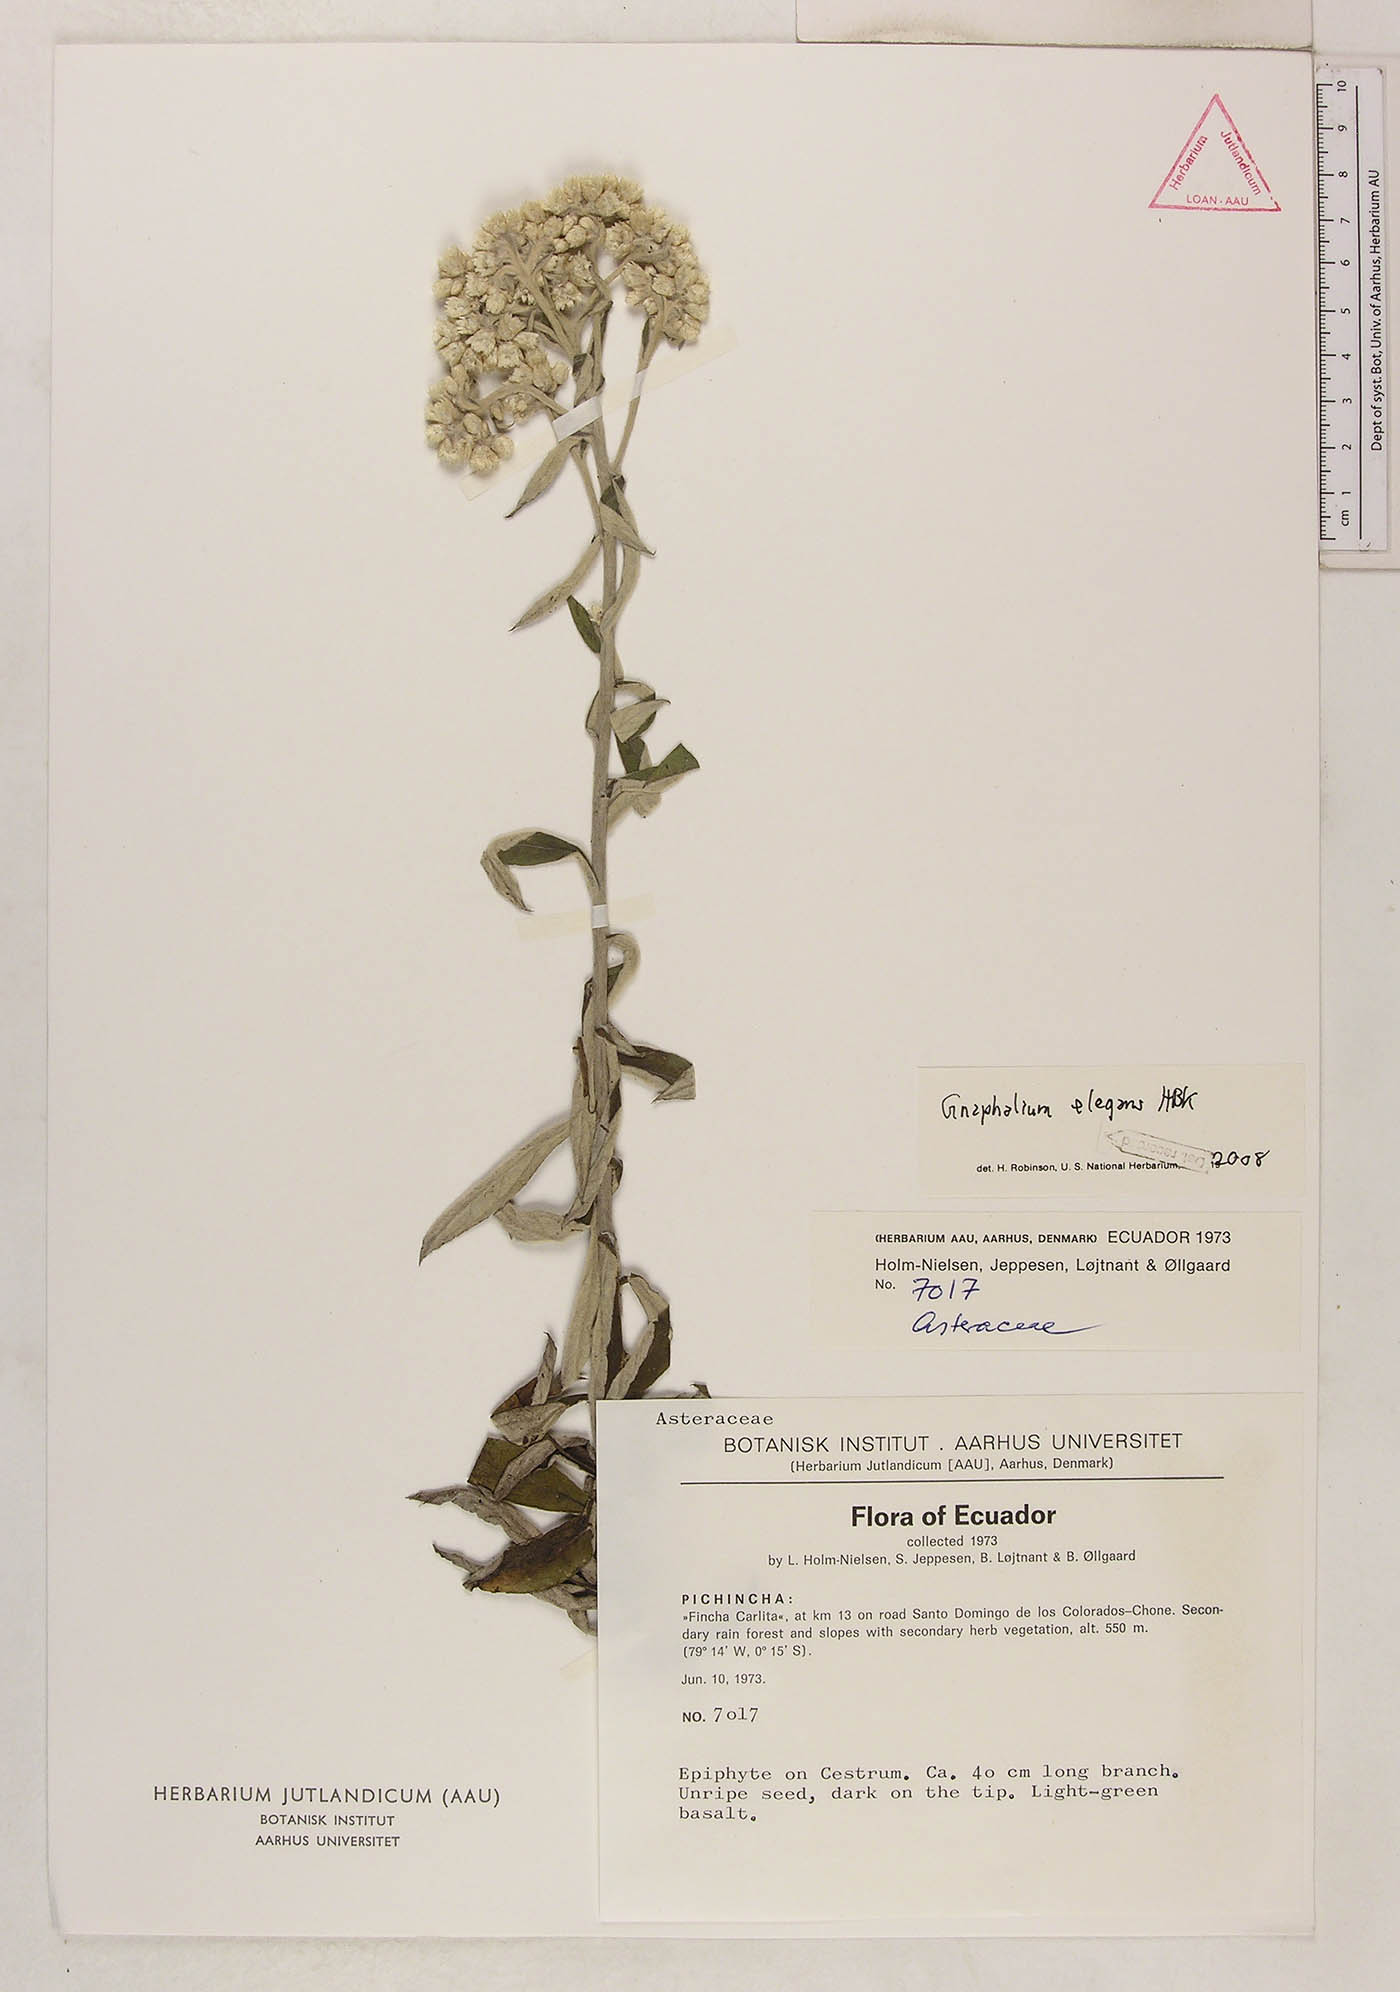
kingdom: Plantae
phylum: Tracheophyta
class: Magnoliopsida
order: Asterales
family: Asteraceae
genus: Pseudognaphalium
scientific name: Pseudognaphalium domingense
